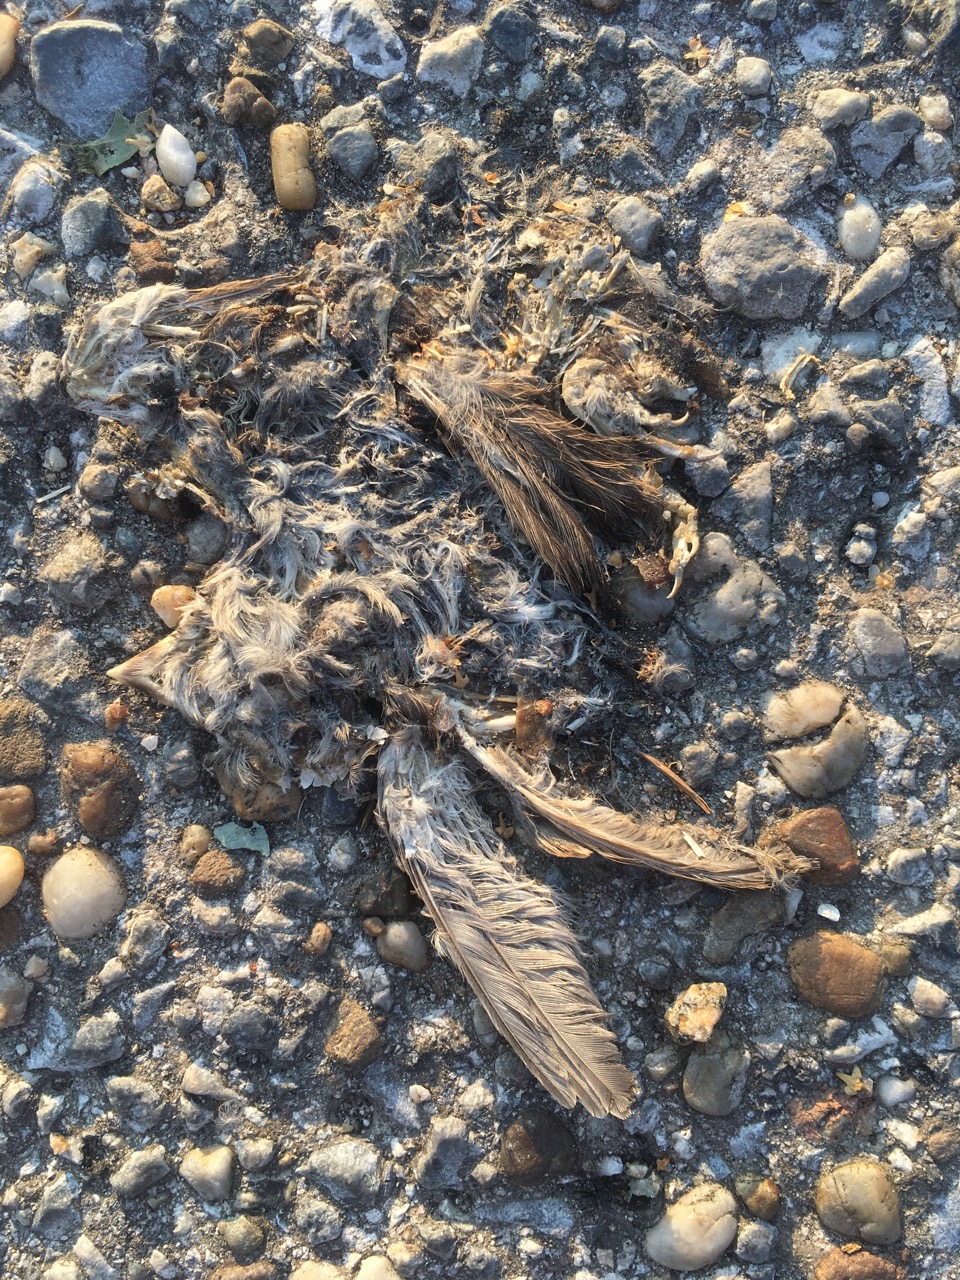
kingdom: Animalia
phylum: Chordata
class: Aves
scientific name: Aves
